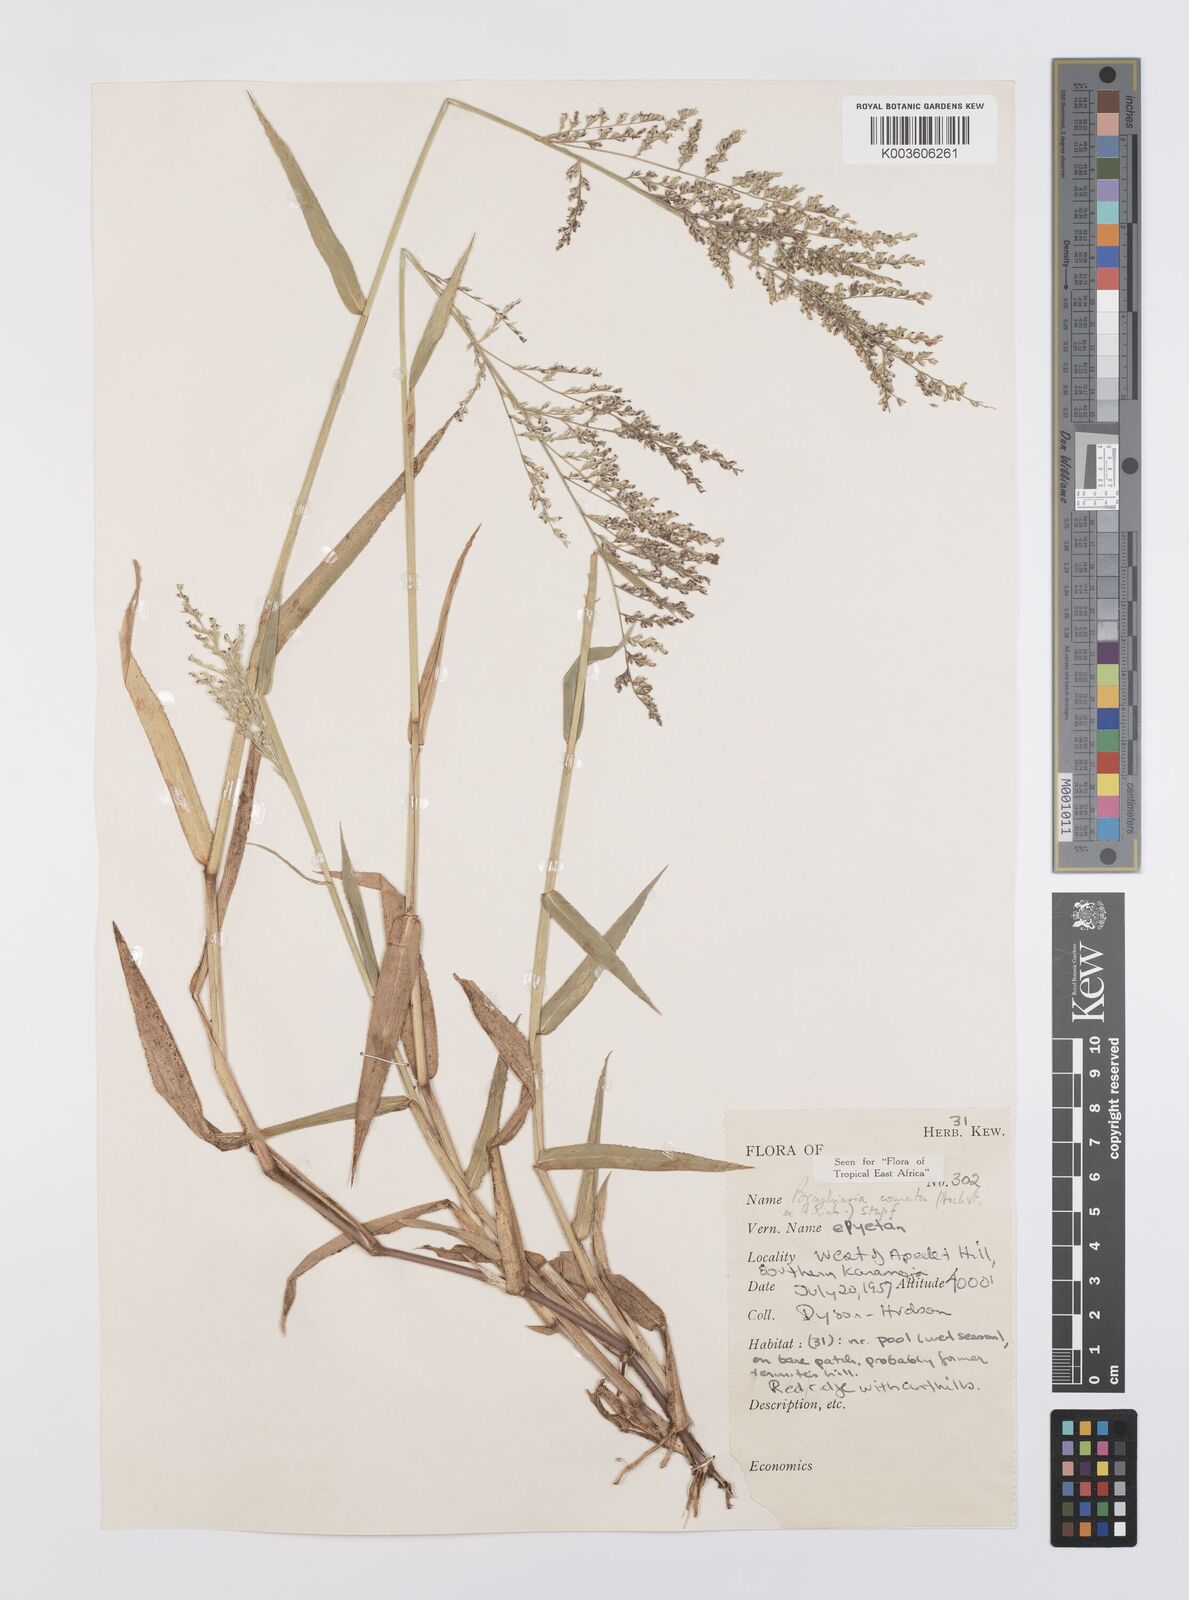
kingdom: Plantae
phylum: Tracheophyta
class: Liliopsida
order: Poales
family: Poaceae
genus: Urochloa
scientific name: Urochloa comata
